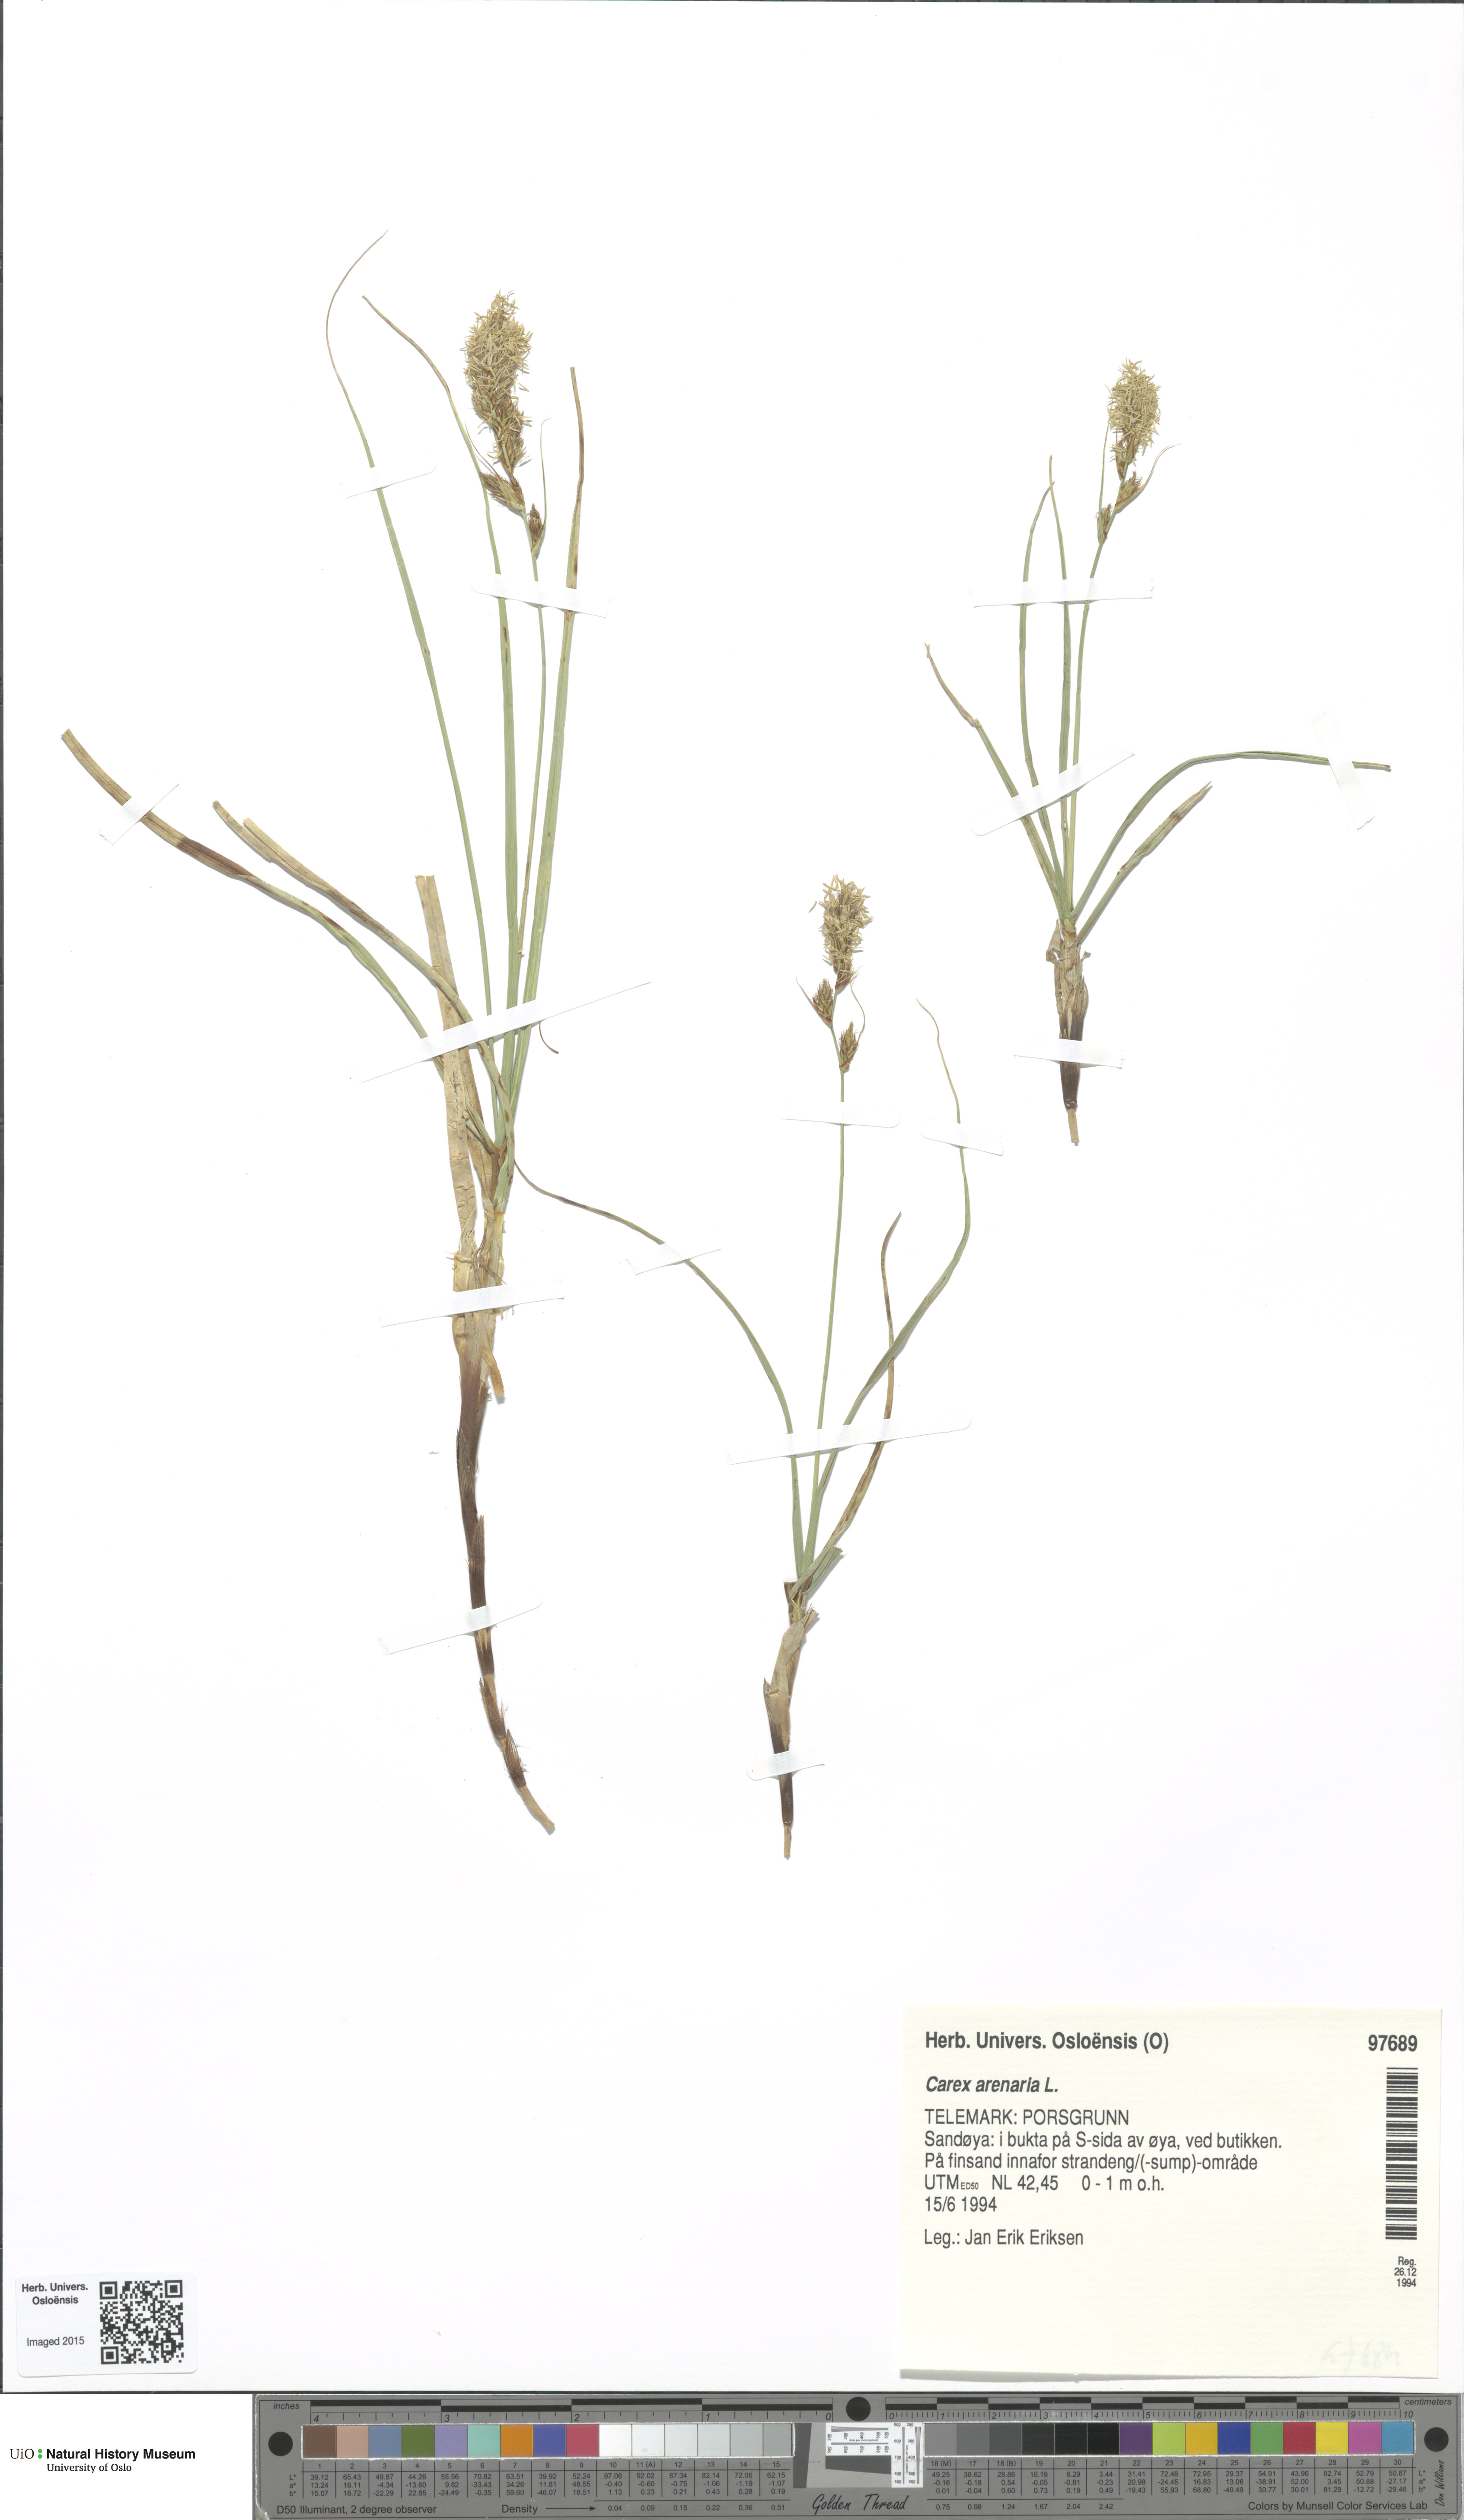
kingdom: Plantae
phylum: Tracheophyta
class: Liliopsida
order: Poales
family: Cyperaceae
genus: Carex
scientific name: Carex arenaria
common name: Sand sedge
